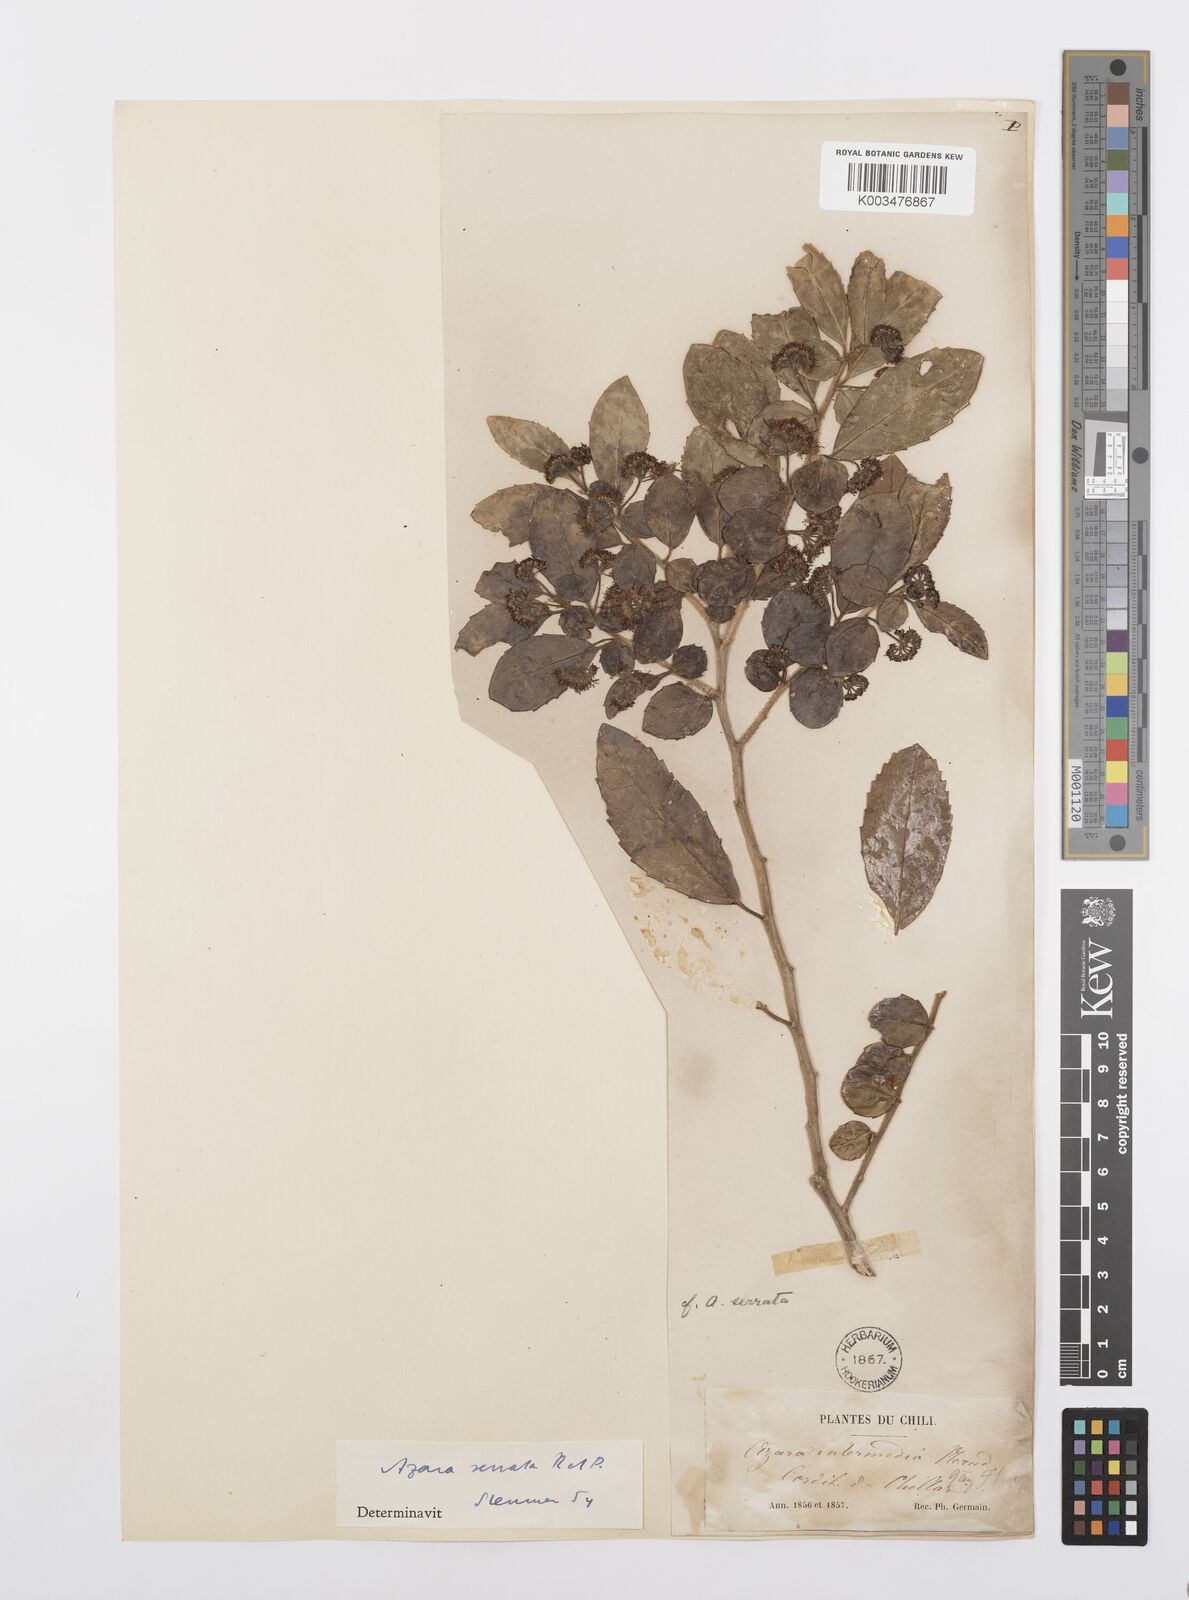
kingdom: Plantae
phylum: Tracheophyta
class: Magnoliopsida
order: Malpighiales
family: Salicaceae
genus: Azara
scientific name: Azara serrata
